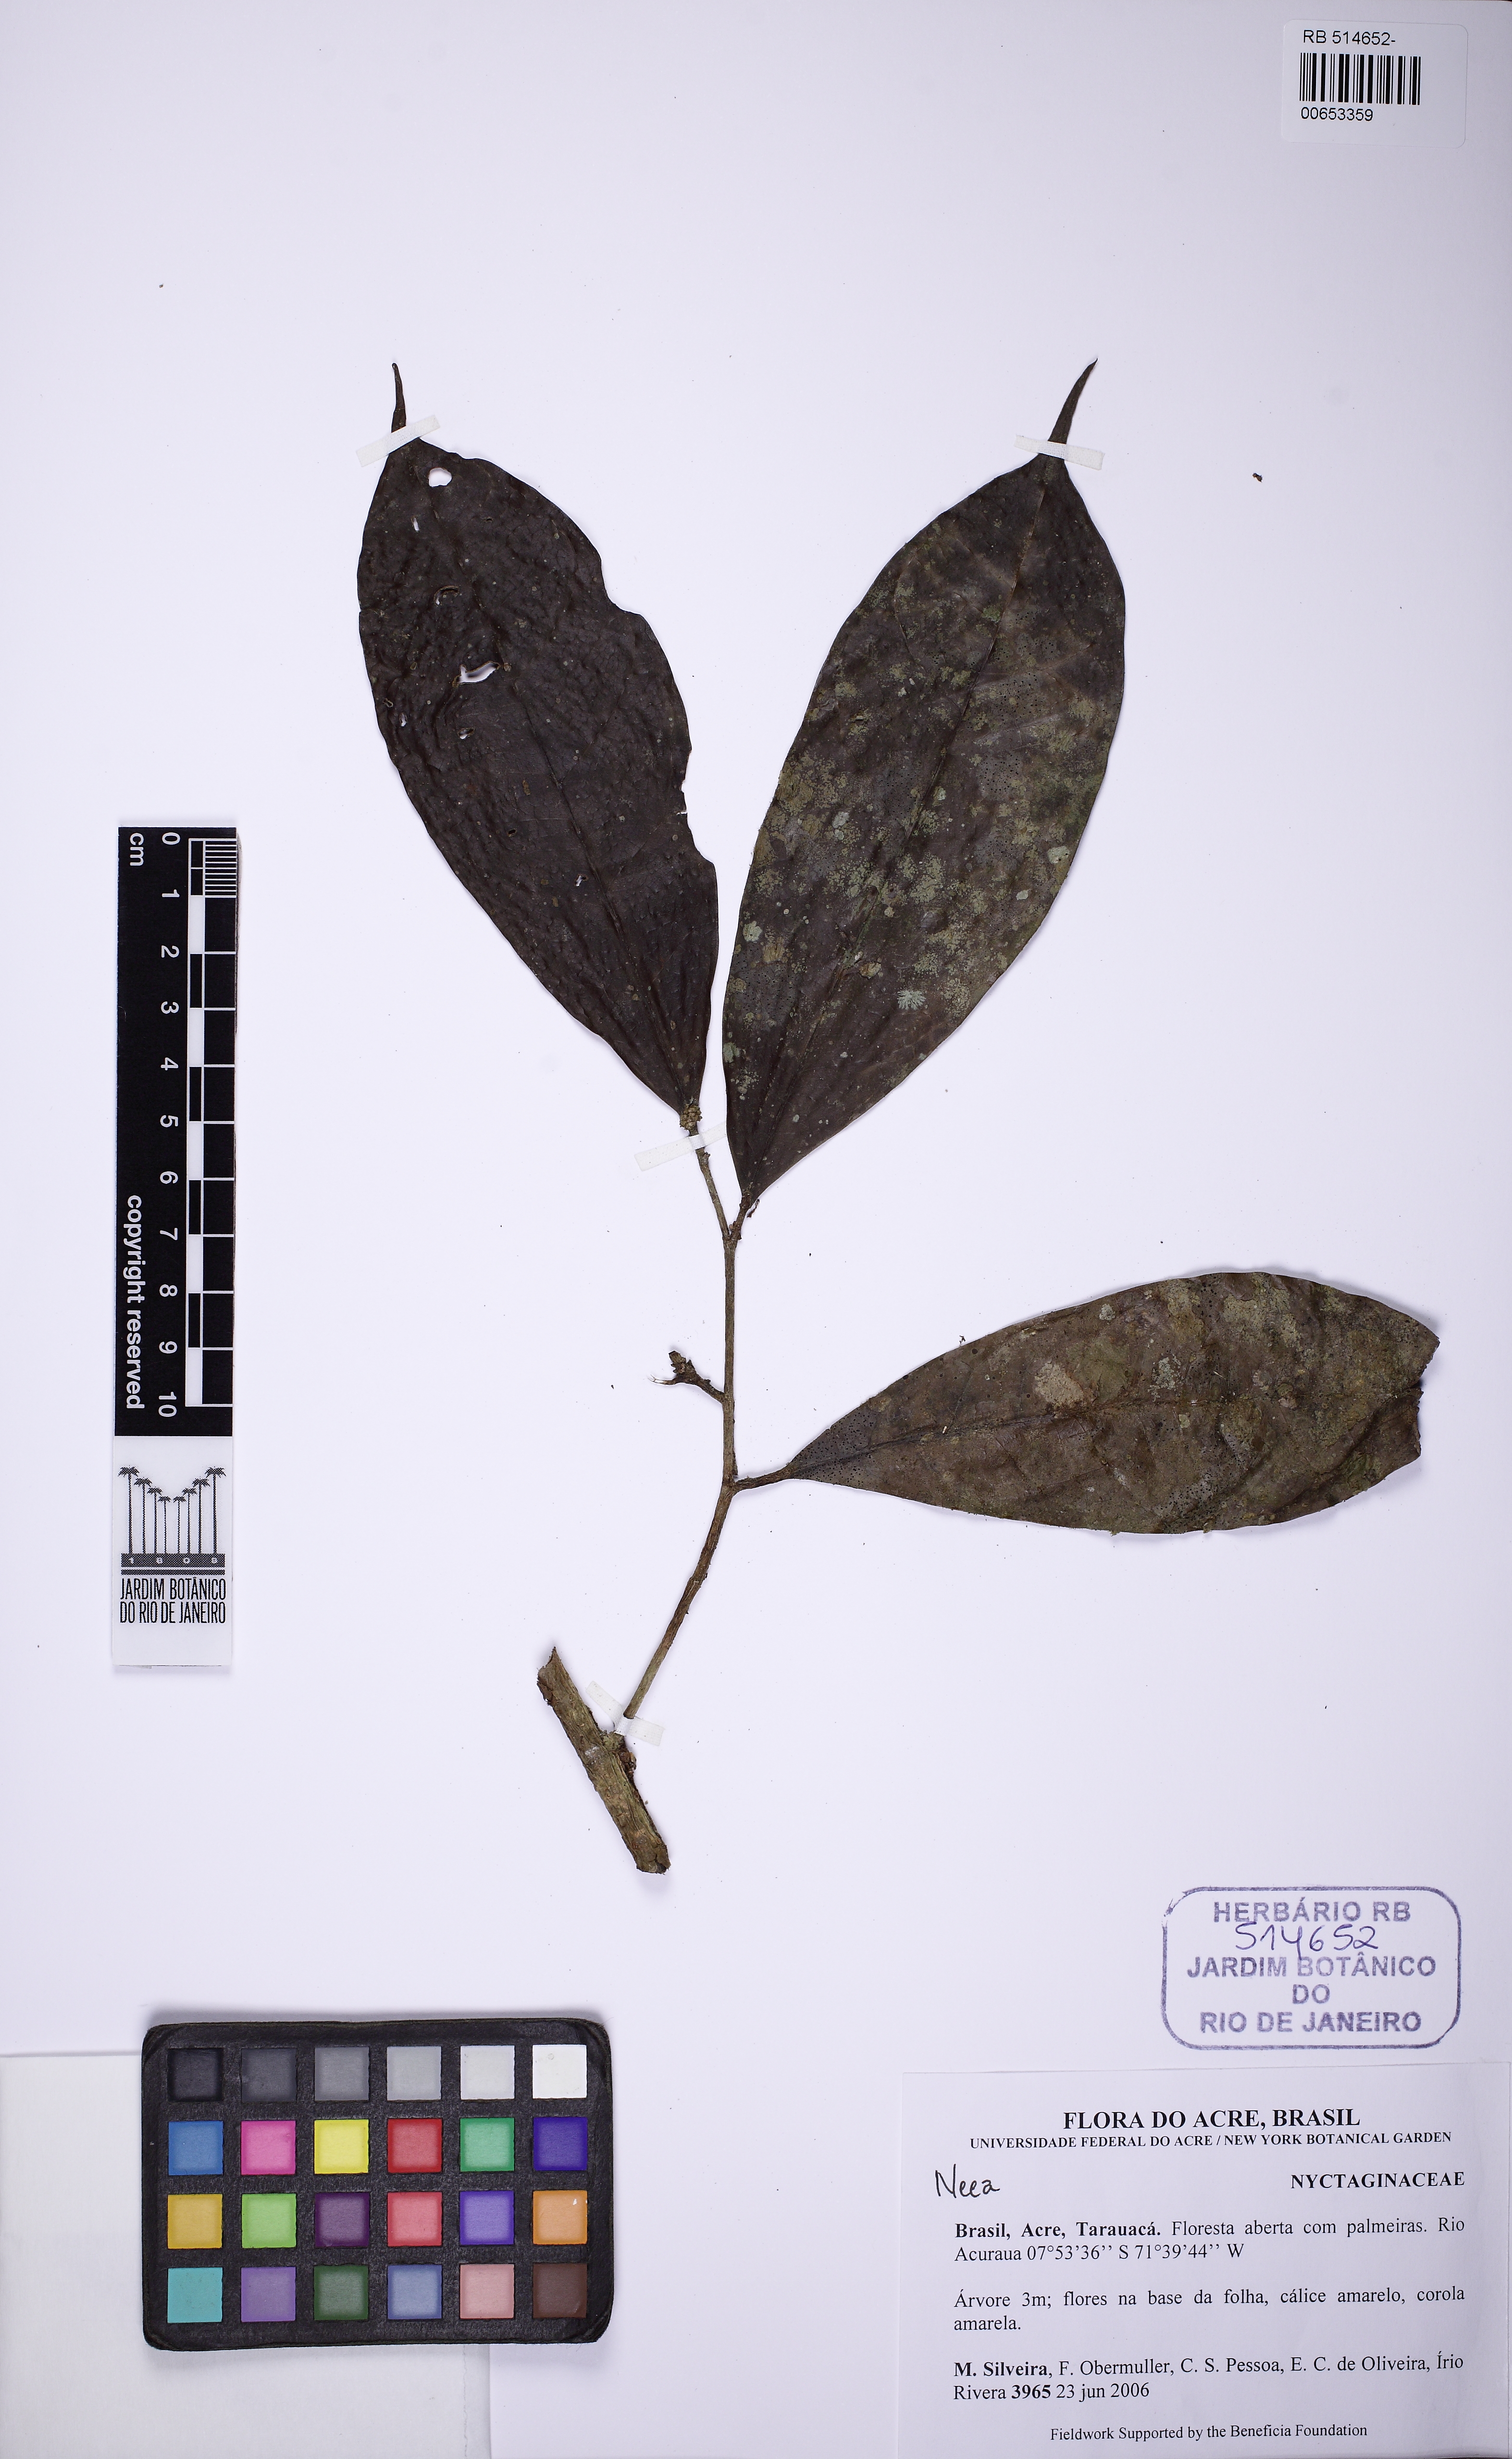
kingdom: Plantae
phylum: Tracheophyta
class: Magnoliopsida
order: Caryophyllales
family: Nyctaginaceae
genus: Neea
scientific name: Neea
